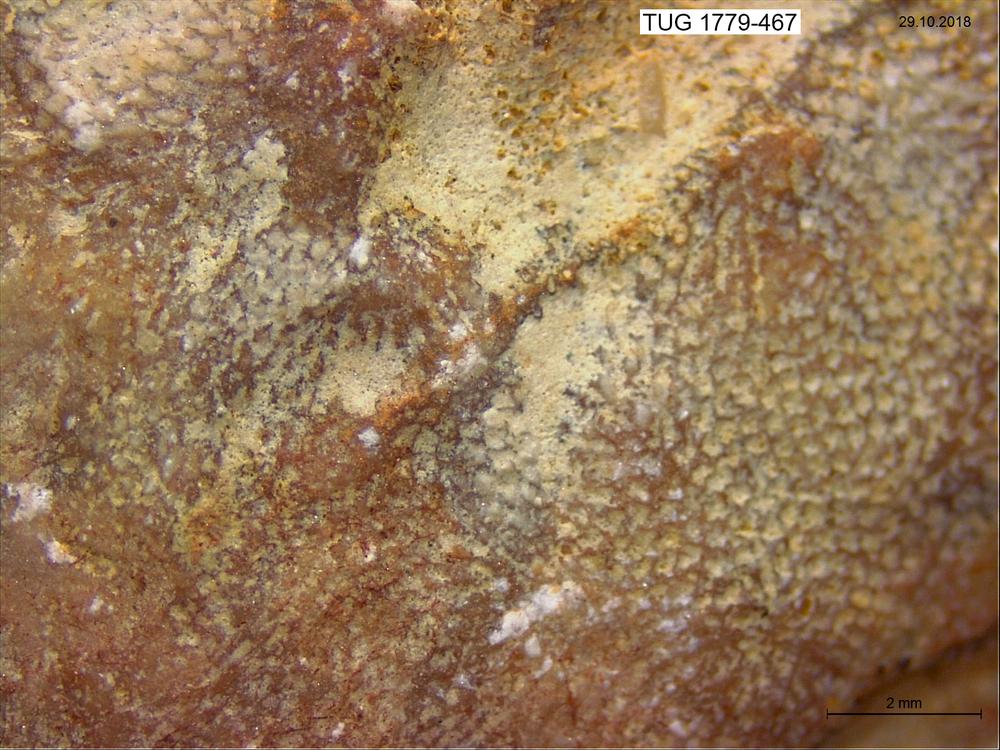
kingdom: Animalia
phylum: Bryozoa
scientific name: Bryozoa
